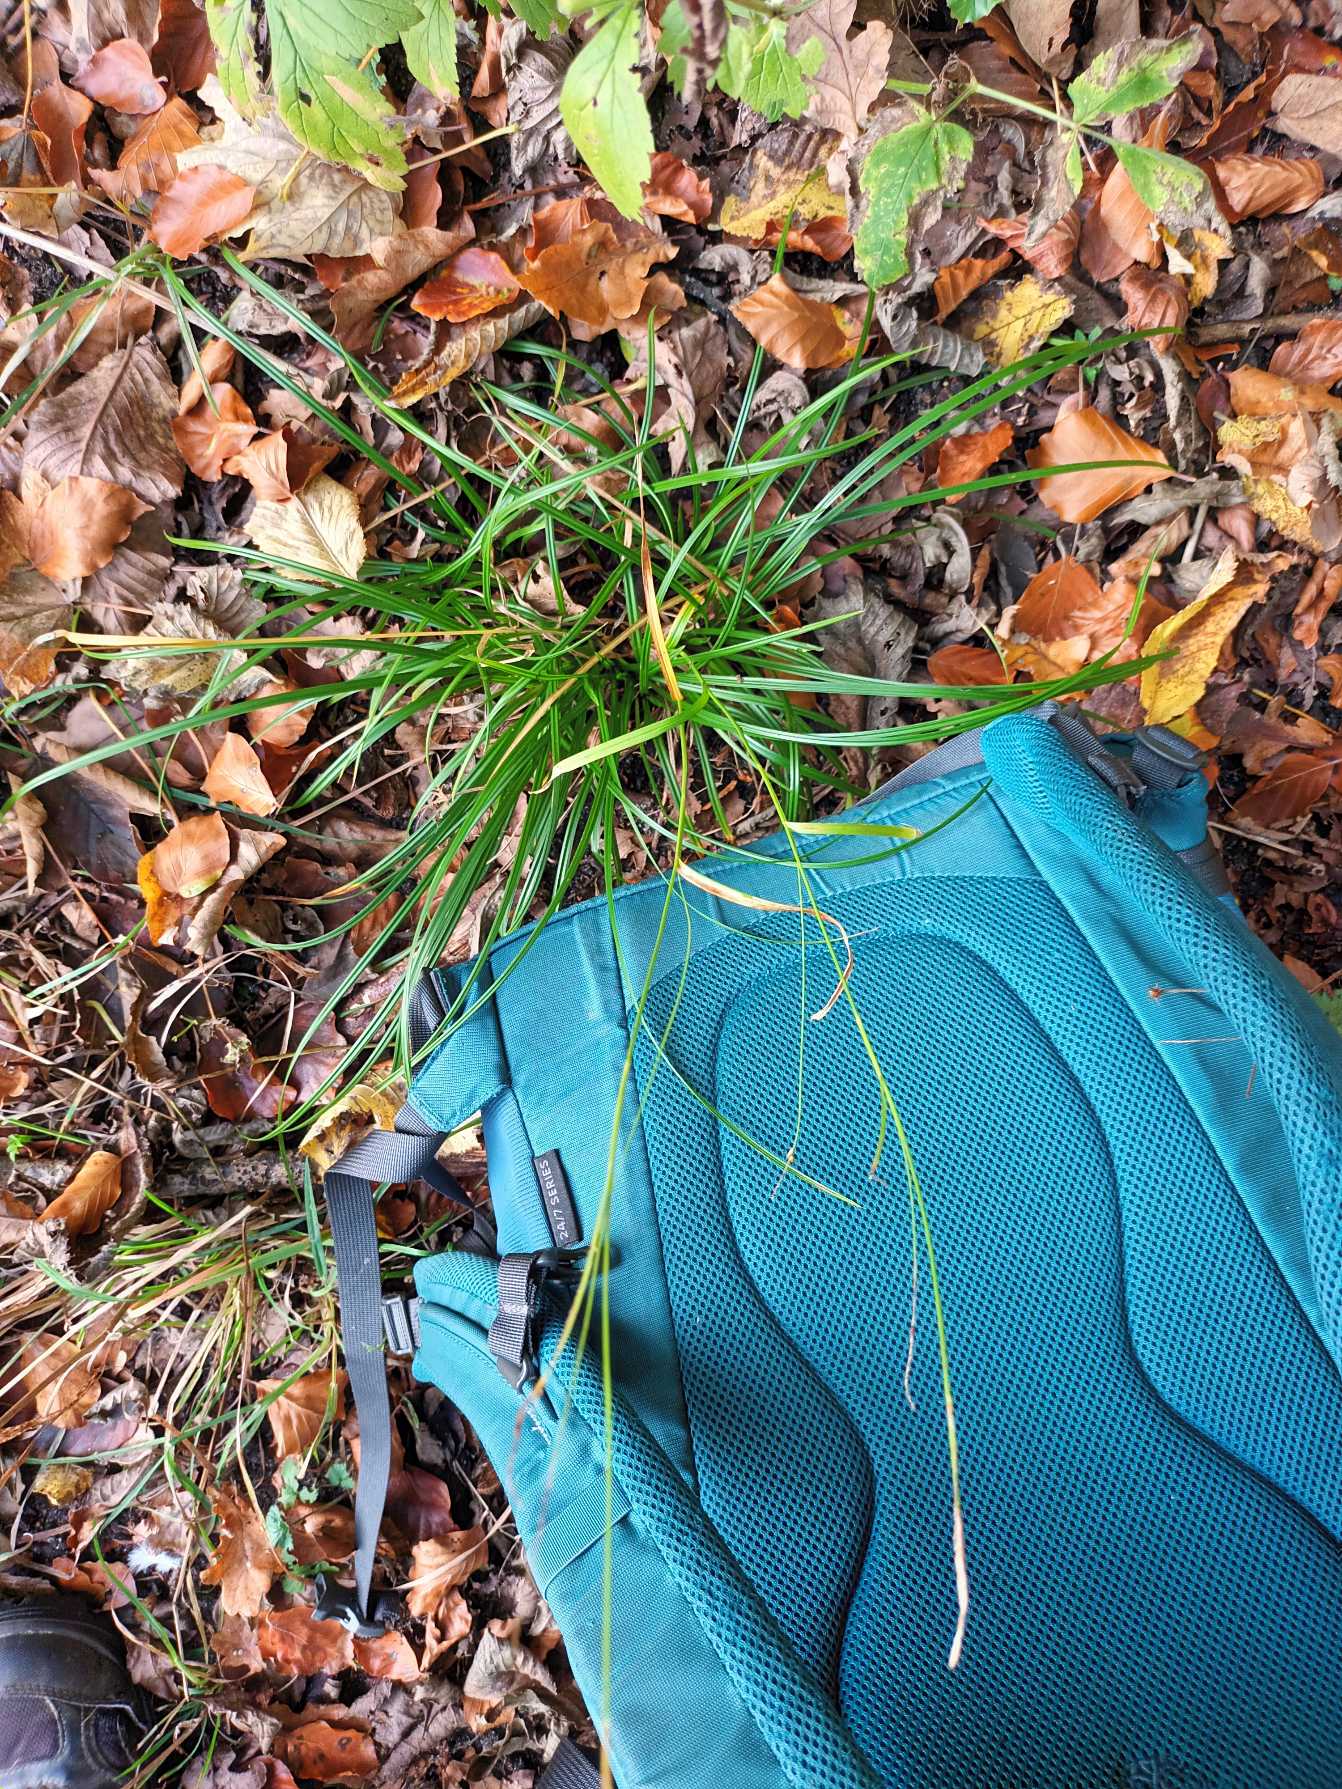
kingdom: Plantae
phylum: Tracheophyta
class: Liliopsida
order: Poales
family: Cyperaceae
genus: Carex
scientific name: Carex sylvatica
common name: Skov-star
